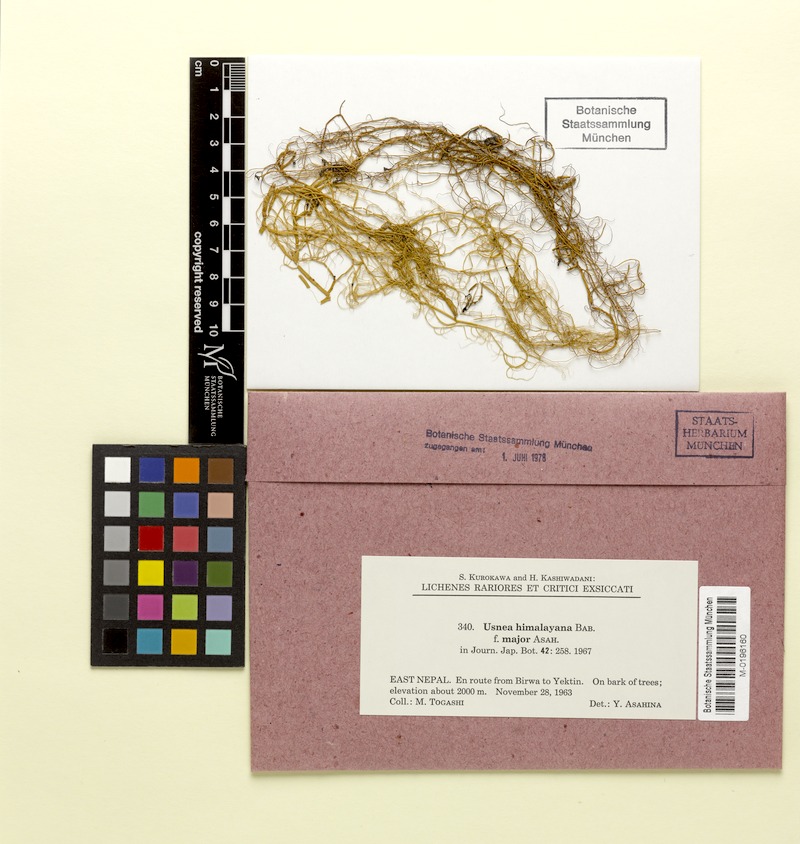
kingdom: Fungi
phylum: Ascomycota
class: Lecanoromycetes
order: Lecanorales
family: Parmeliaceae
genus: Usnea
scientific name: Usnea himalayana
